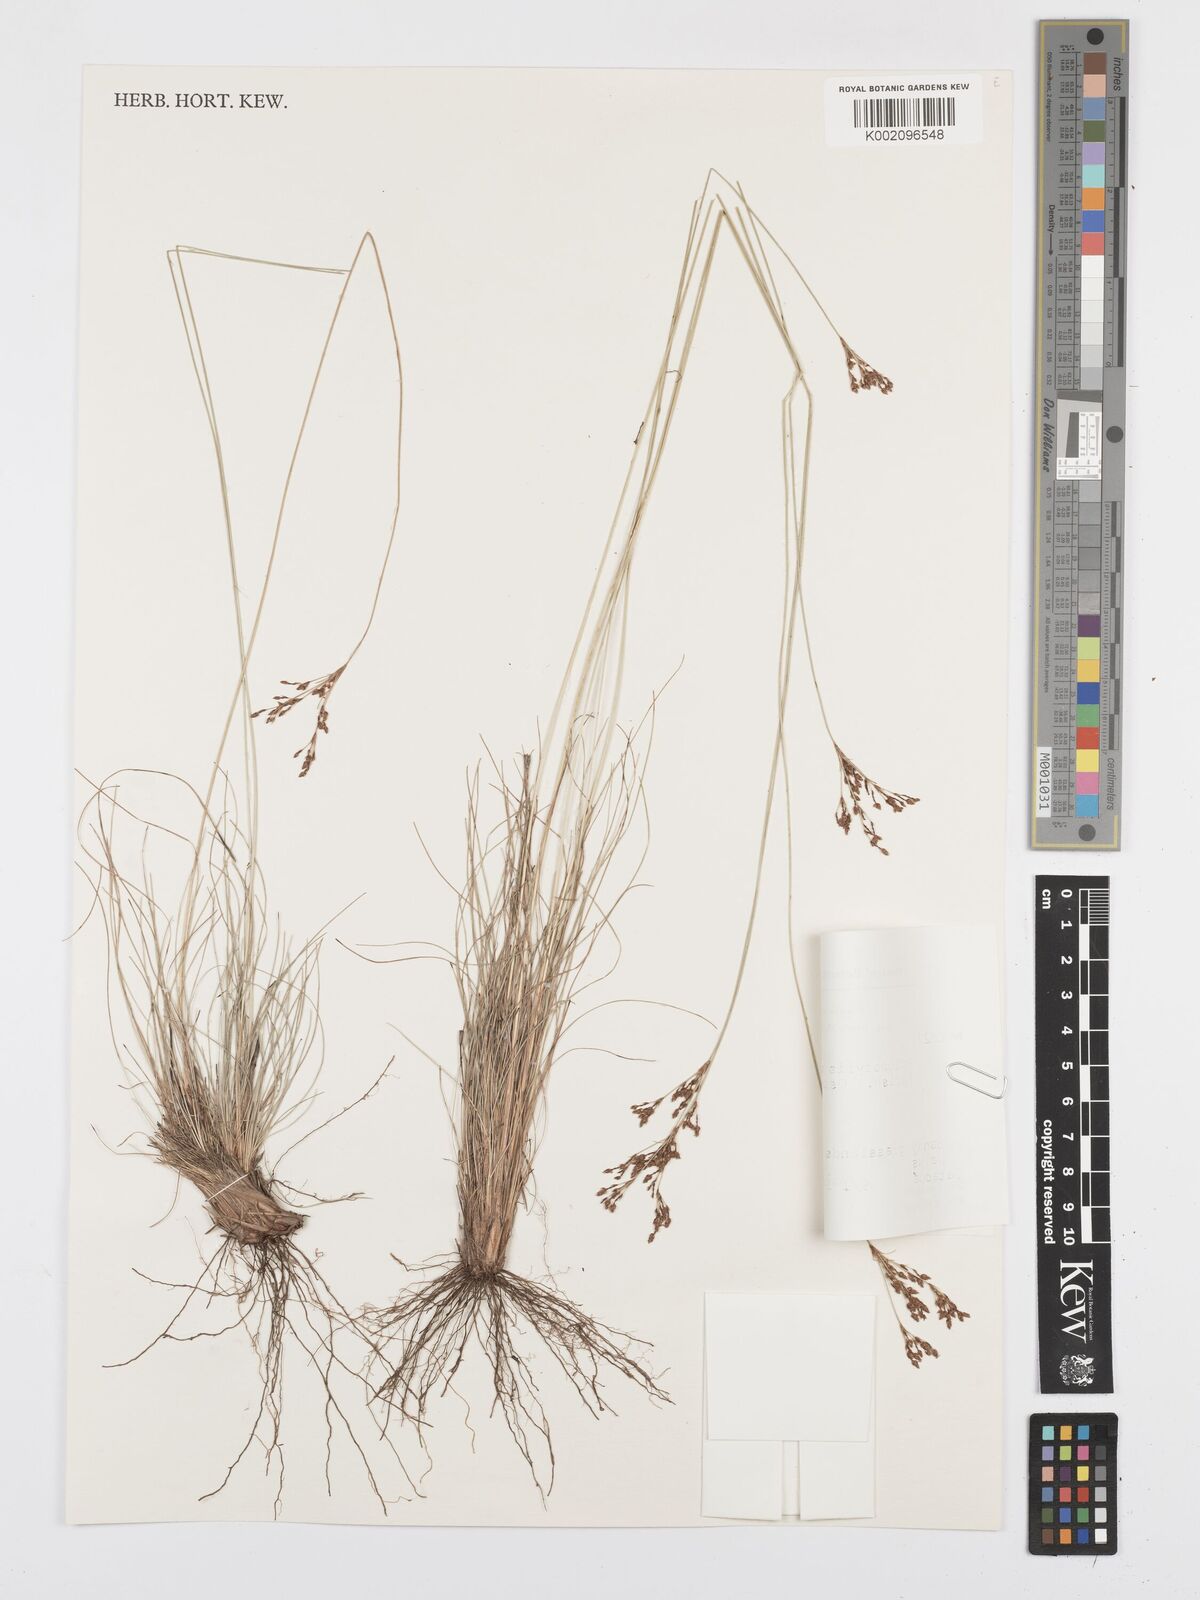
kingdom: Plantae
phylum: Tracheophyta
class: Liliopsida
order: Poales
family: Cyperaceae
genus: Bulbostylis
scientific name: Bulbostylis communis
